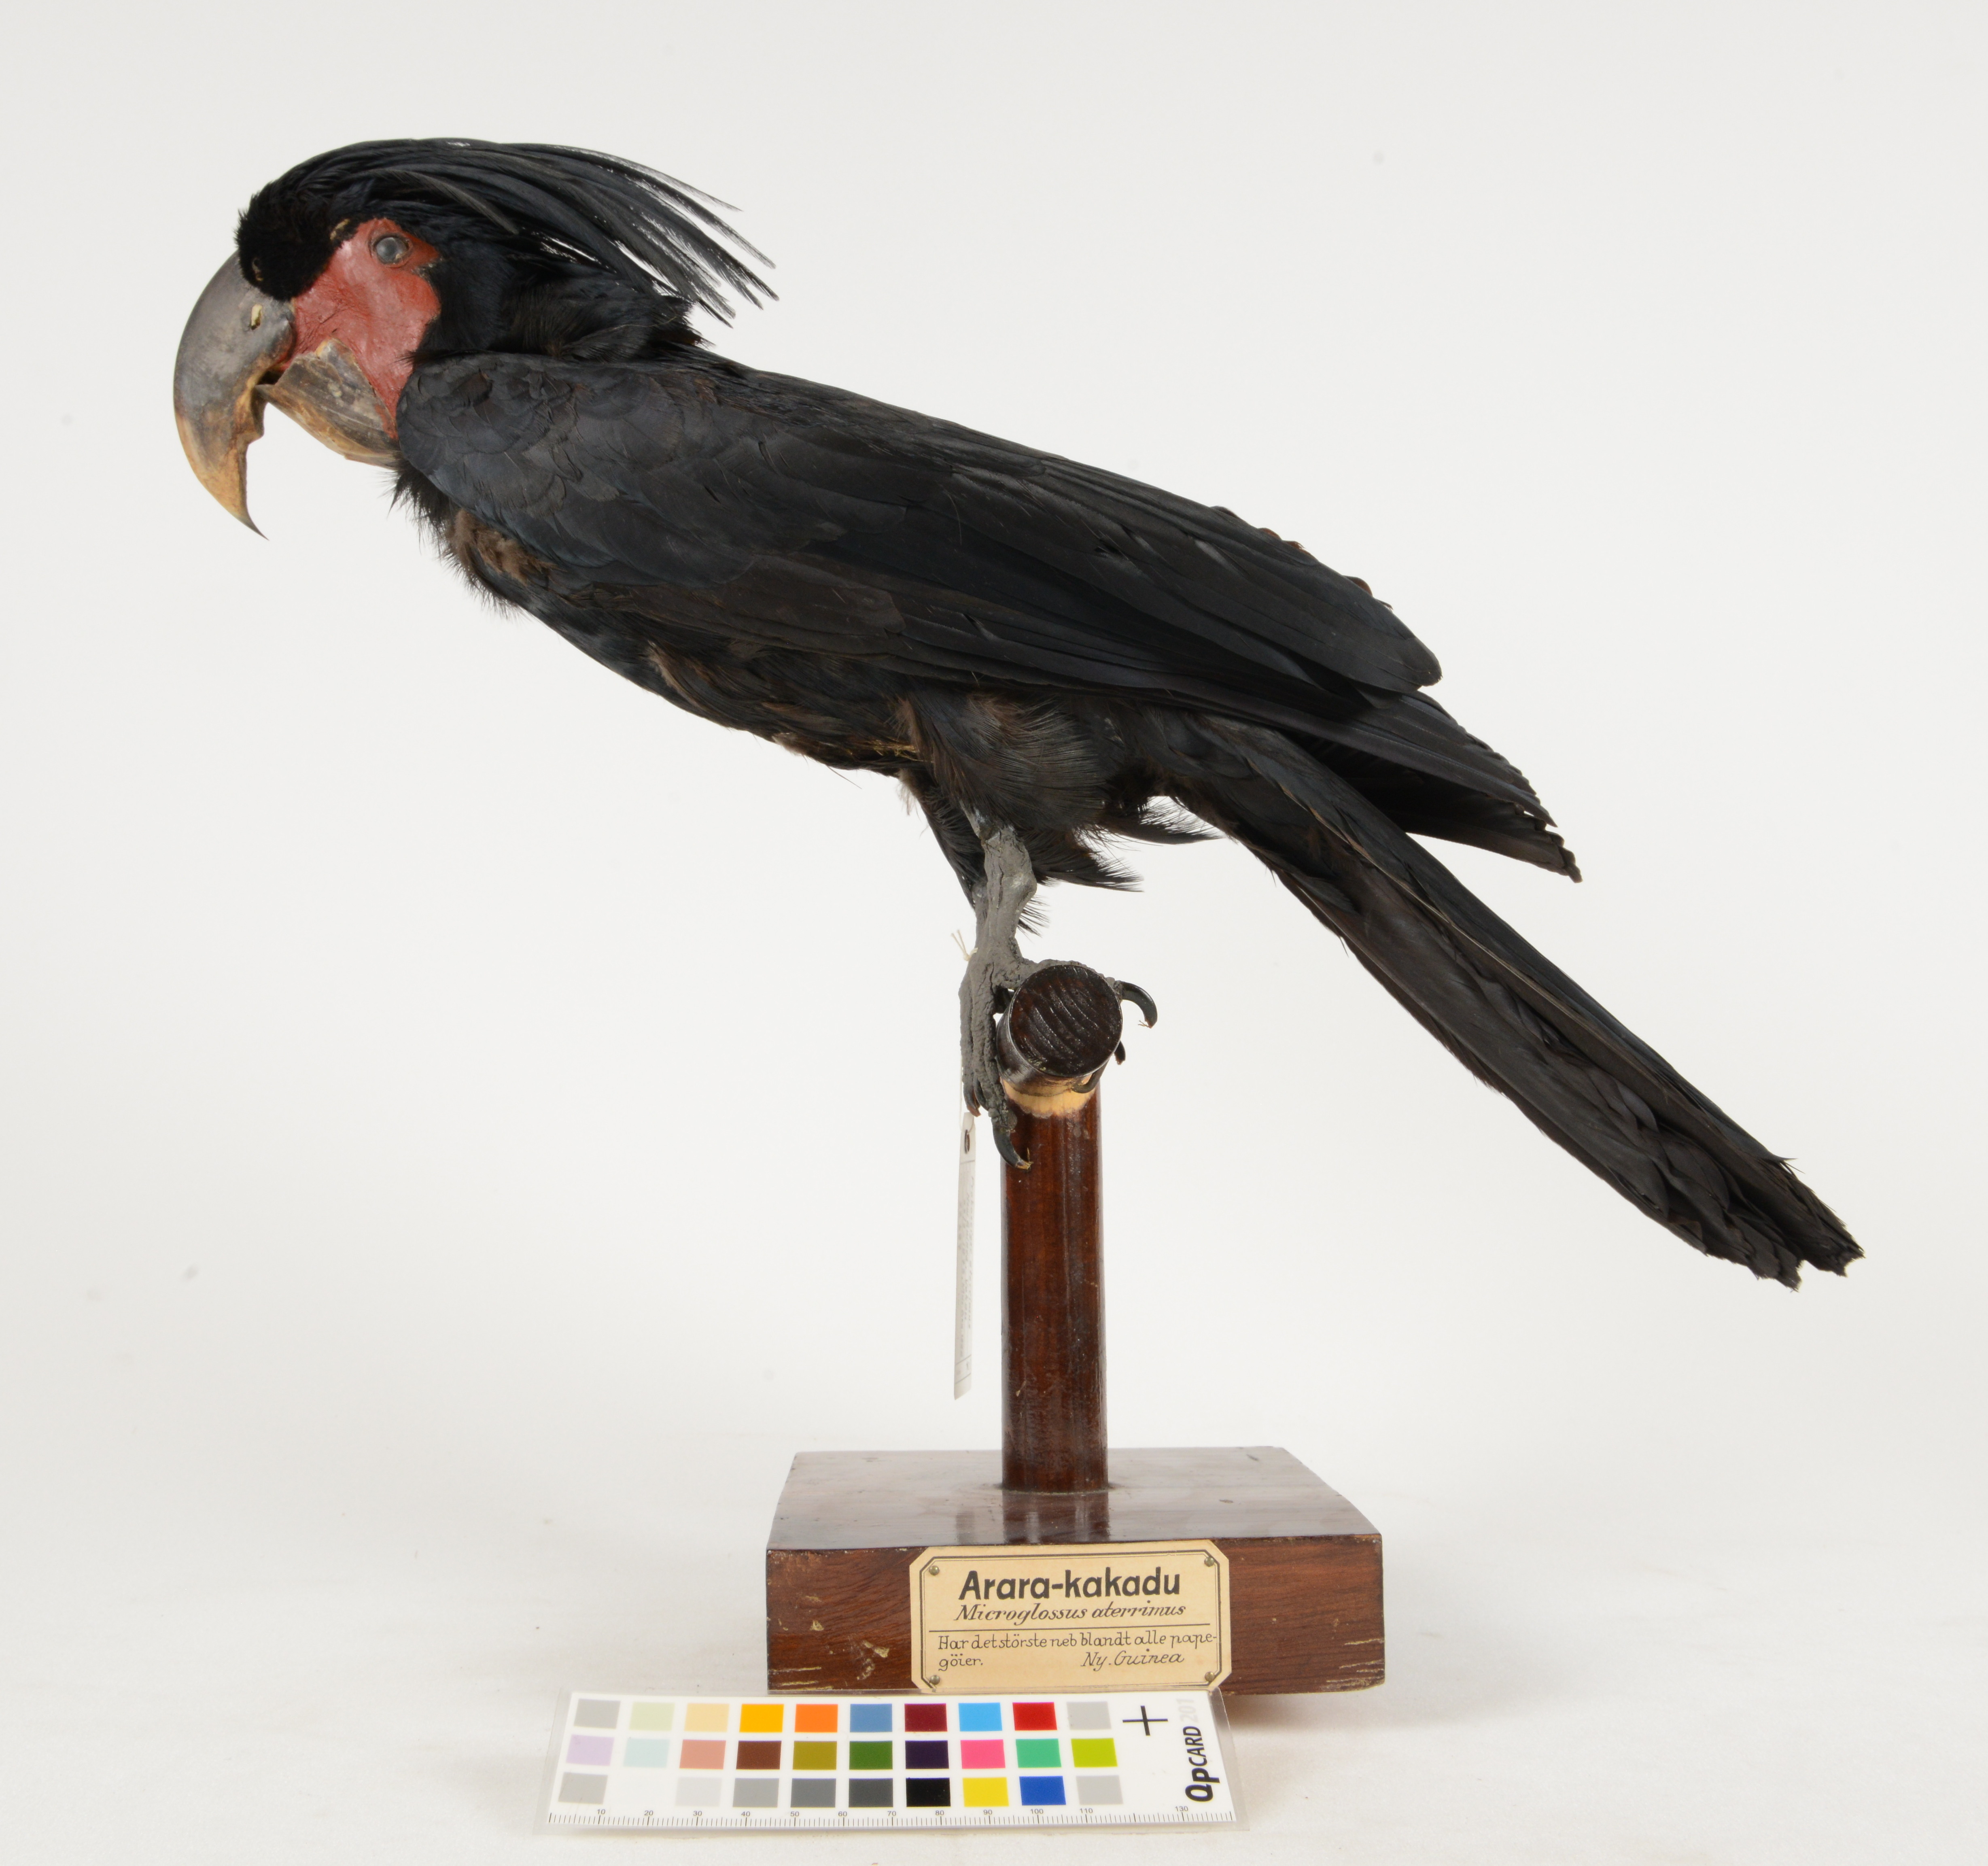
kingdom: Animalia
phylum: Chordata
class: Aves
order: Psittaciformes
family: Psittacidae
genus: Probosciger
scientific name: Probosciger aterrimus
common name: Palm cockatoo
